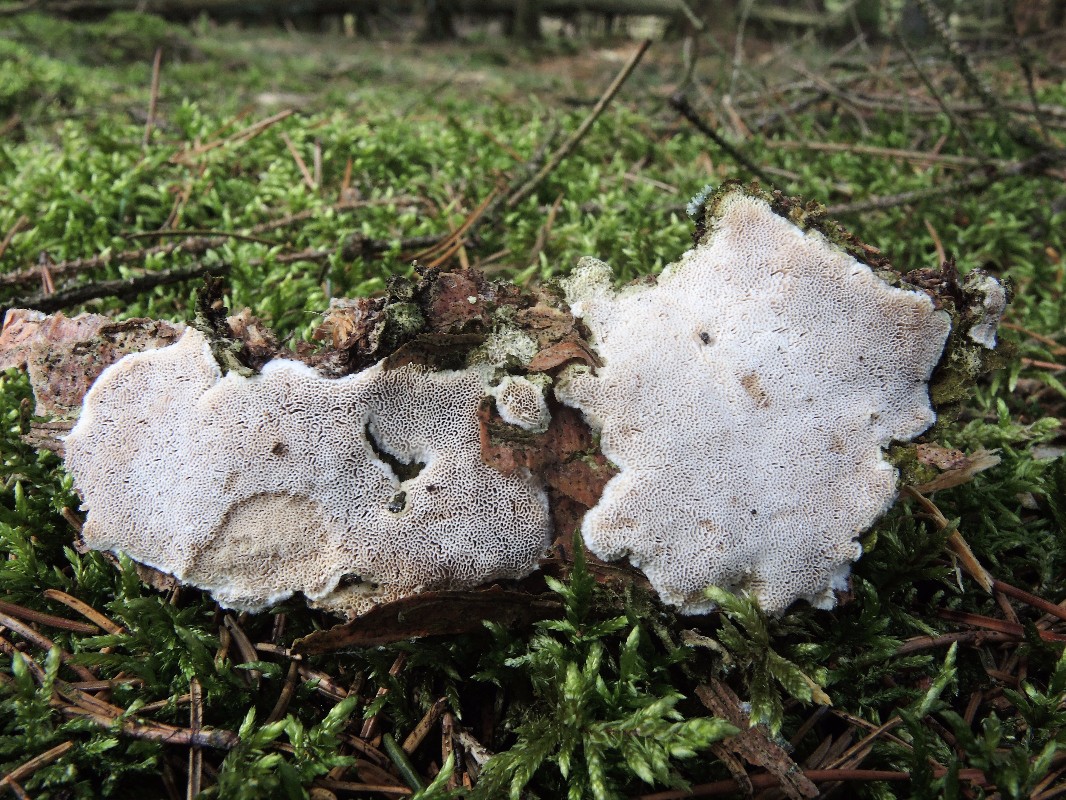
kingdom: Fungi
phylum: Basidiomycota
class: Agaricomycetes
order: Polyporales
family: Incrustoporiaceae
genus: Skeletocutis
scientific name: Skeletocutis carneogrisea
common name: rødgrå krystalporesvamp
